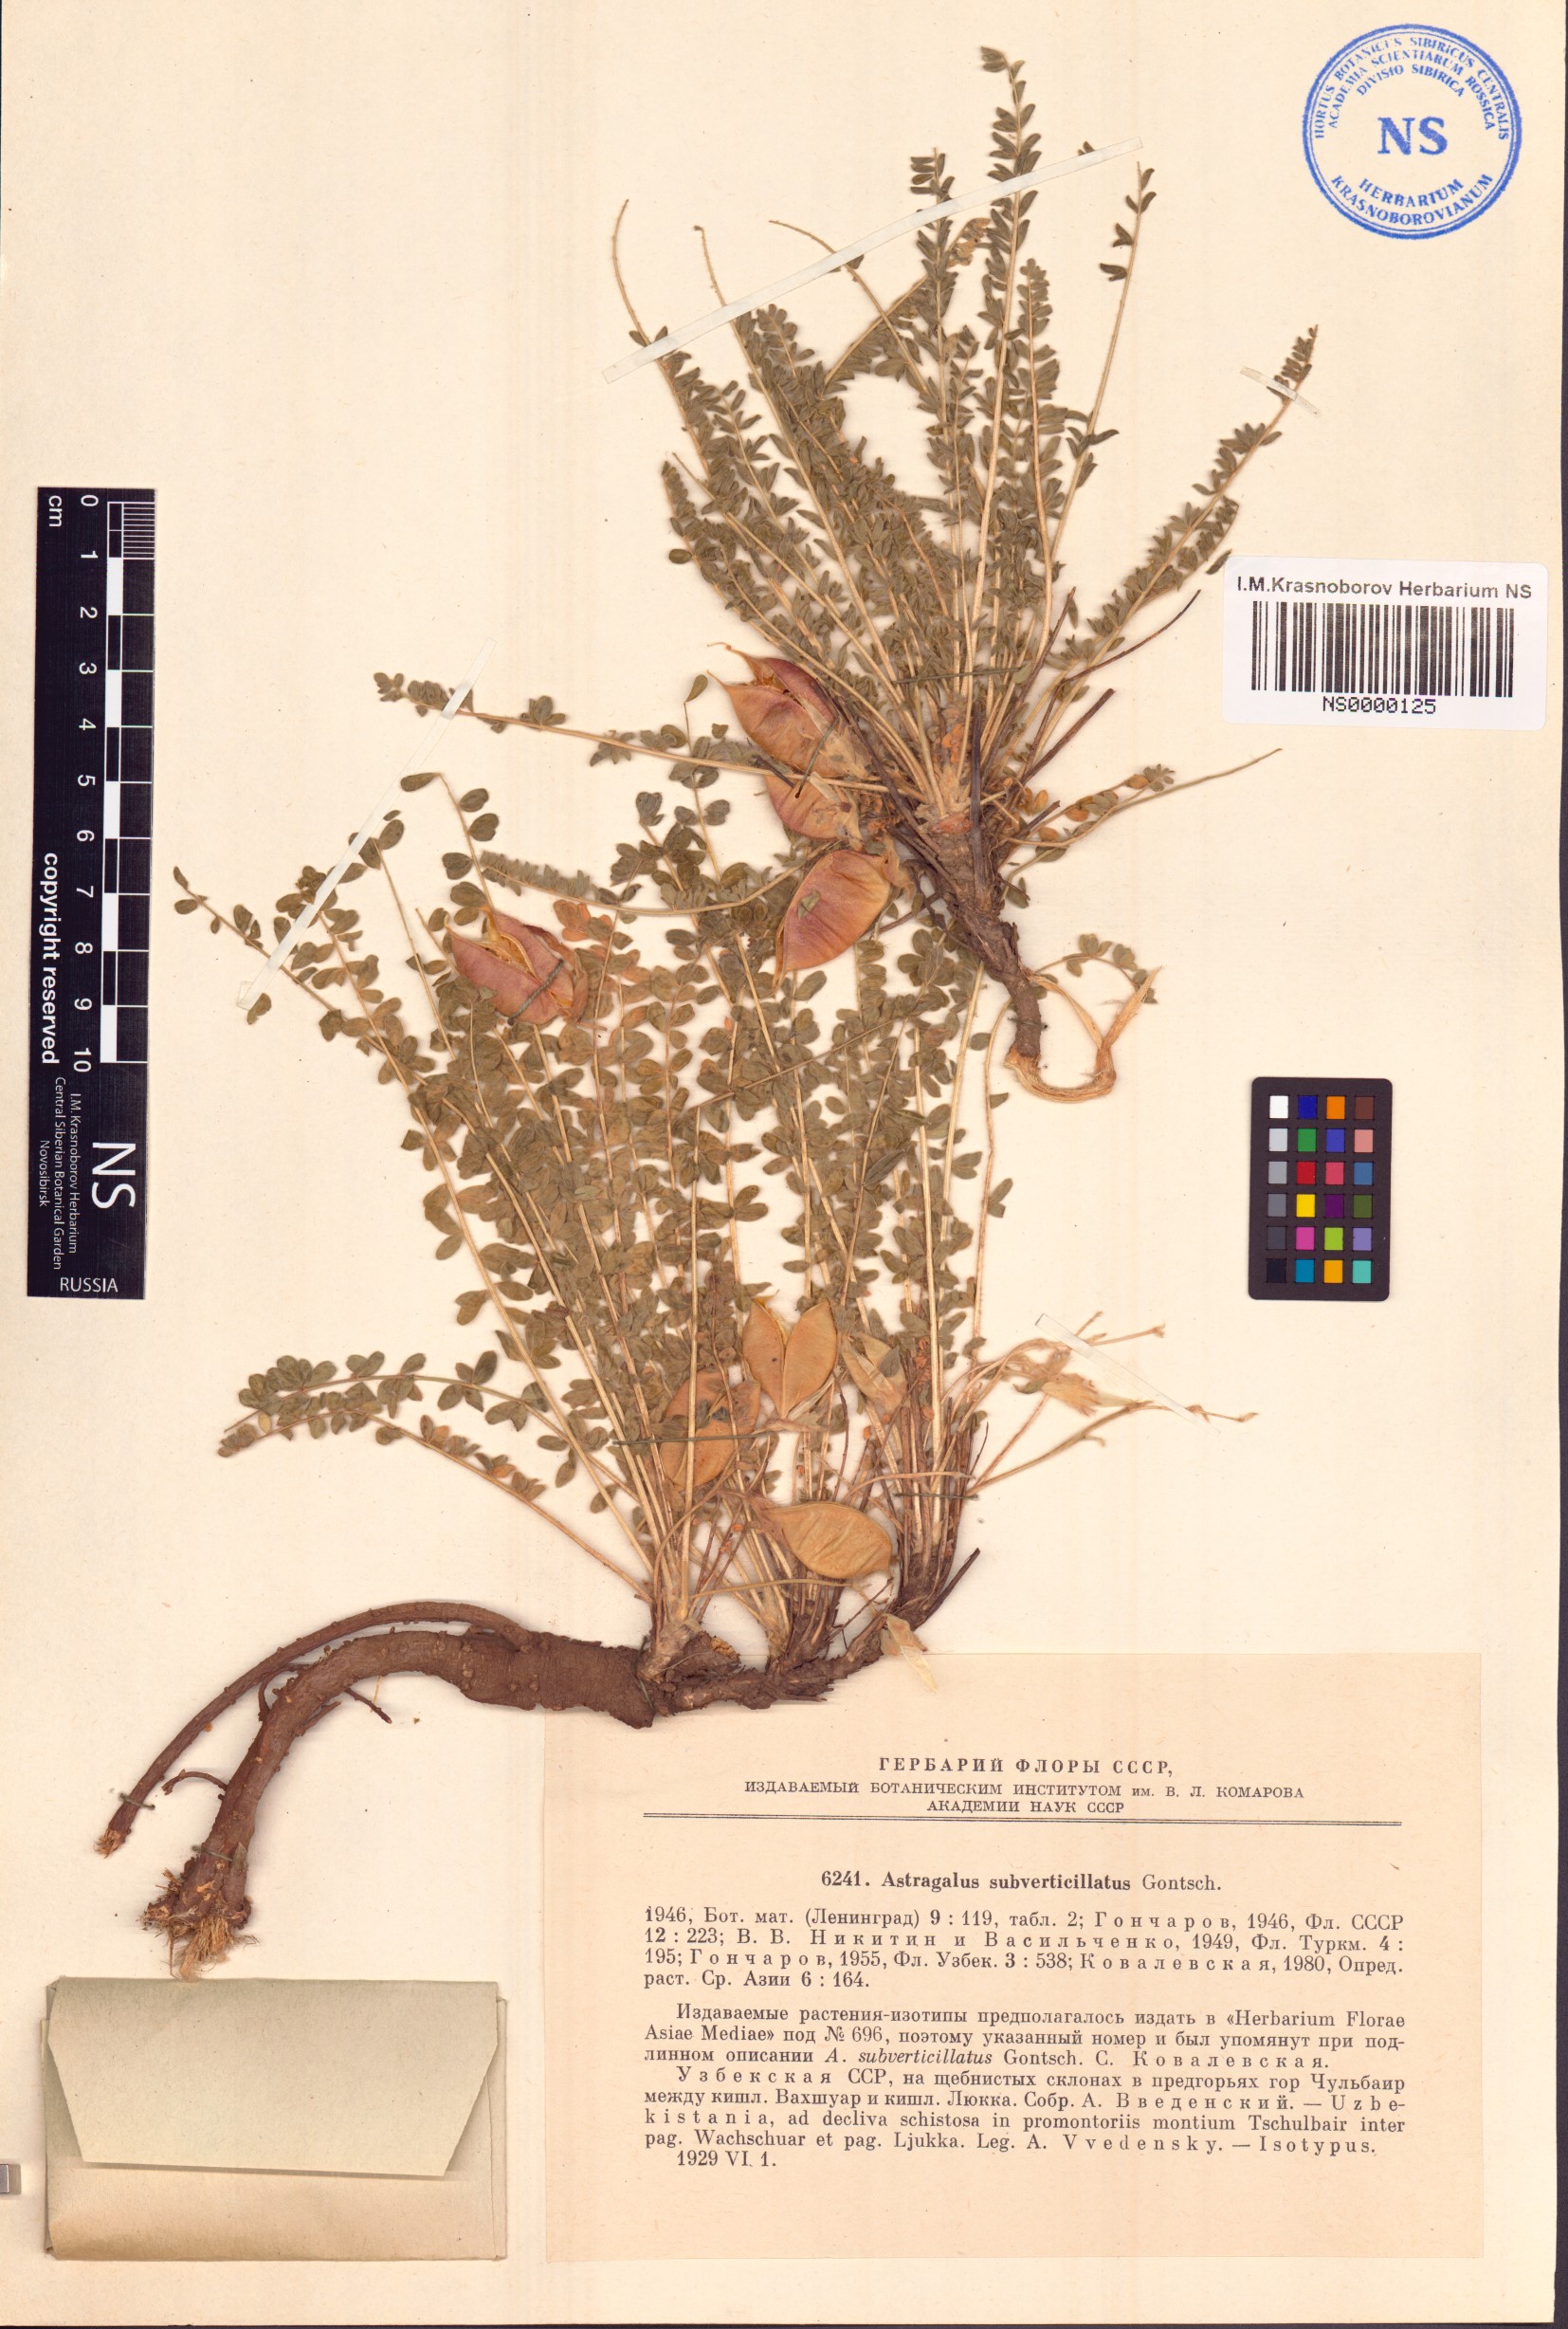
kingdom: Plantae
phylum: Tracheophyta
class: Magnoliopsida
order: Fabales
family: Fabaceae
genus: Astragalus
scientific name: Astragalus subverticillatus
